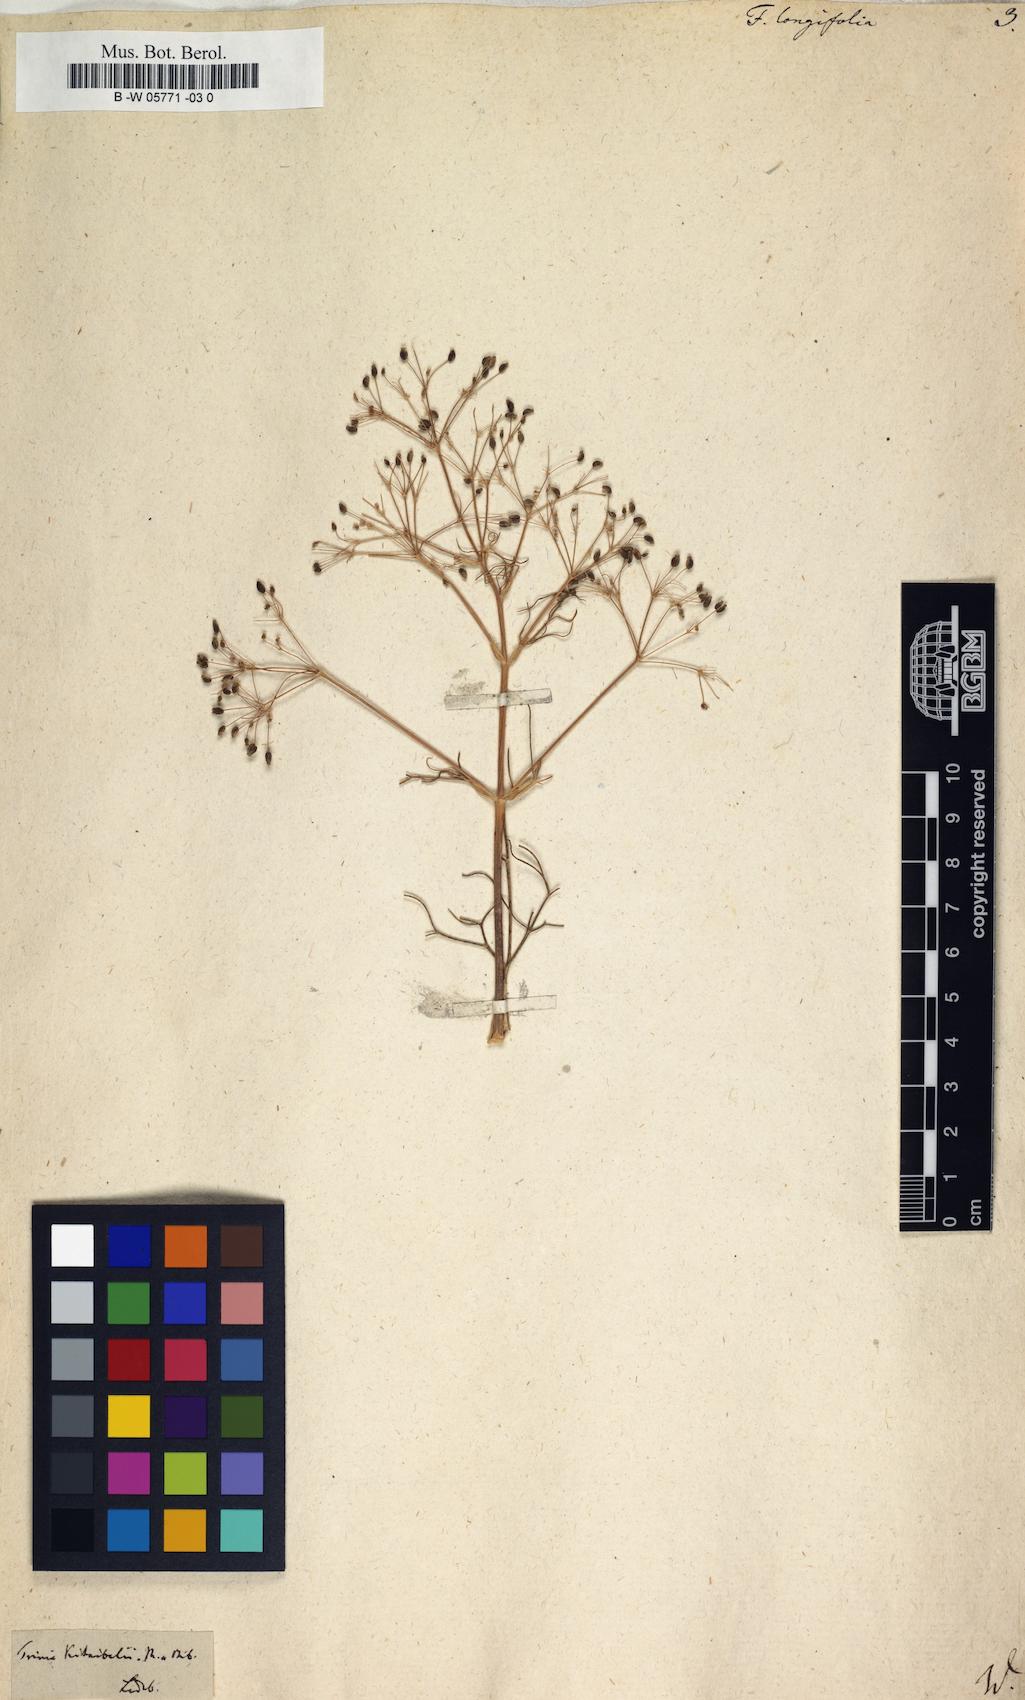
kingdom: Plantae
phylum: Tracheophyta
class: Magnoliopsida
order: Apiales
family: Apiaceae
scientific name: Apiaceae
